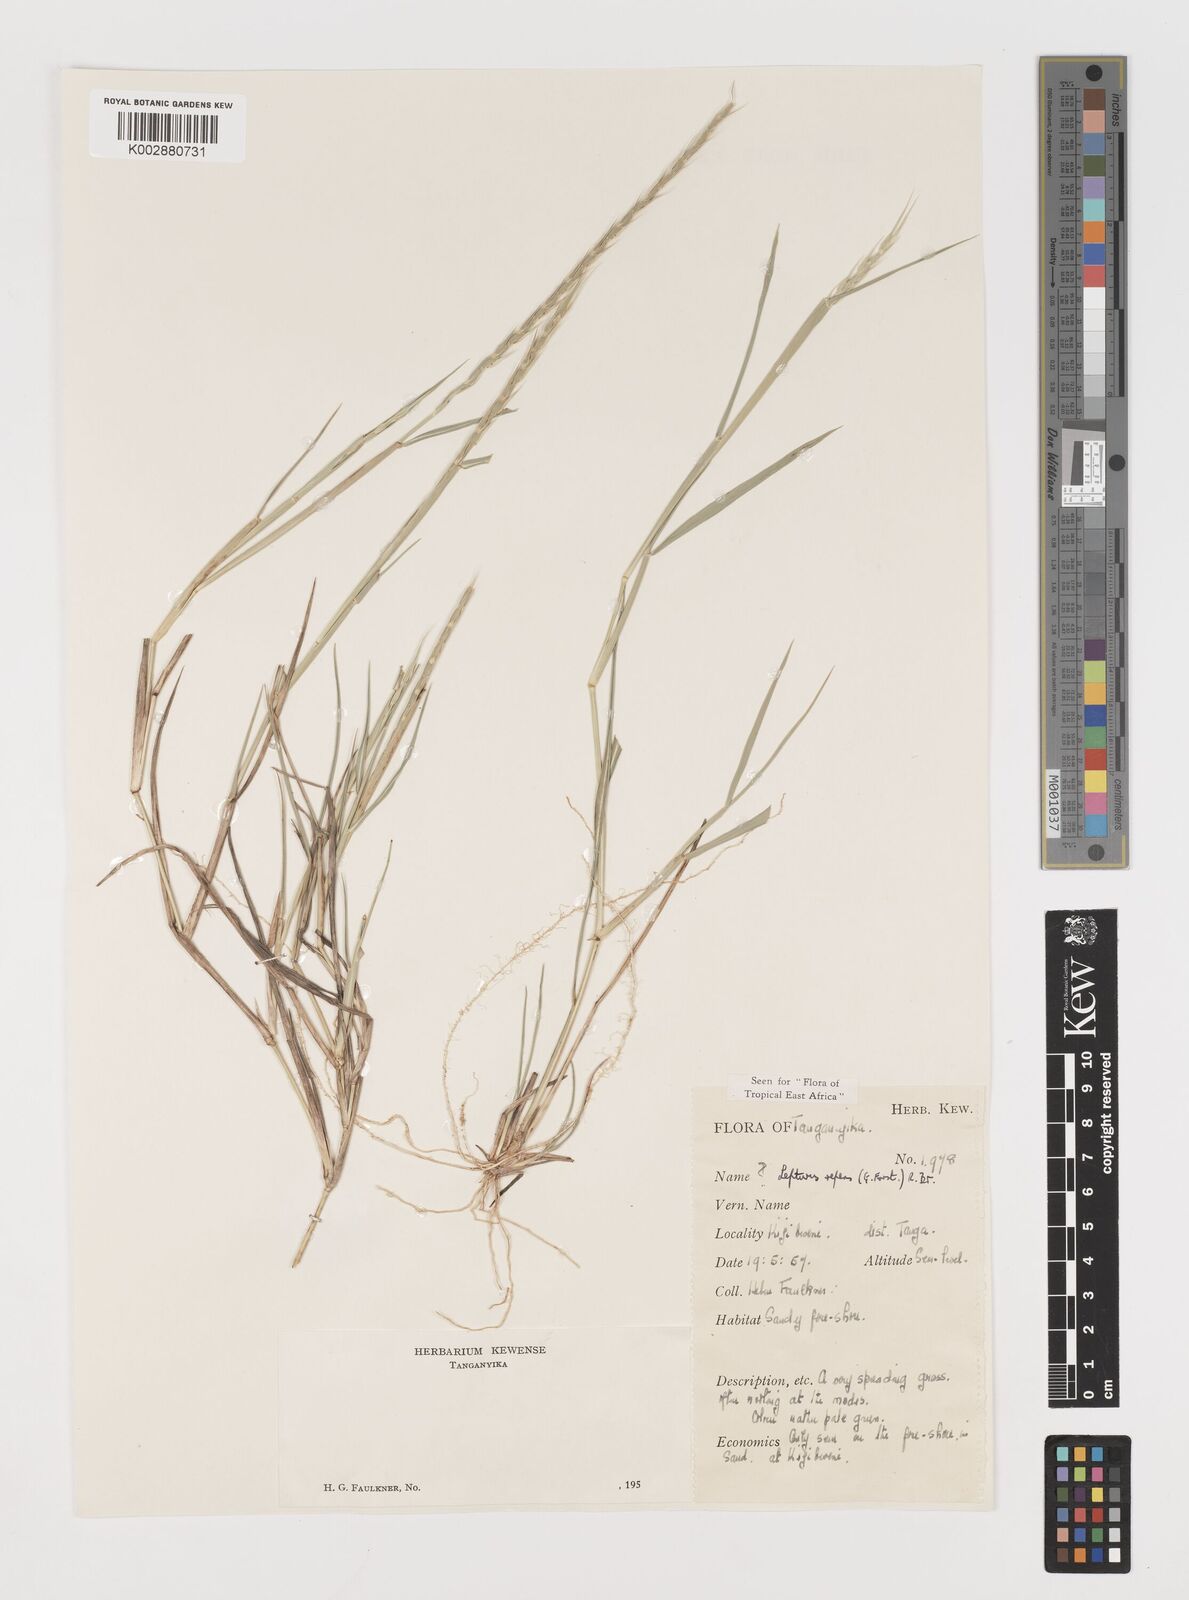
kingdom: Plantae
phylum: Tracheophyta
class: Liliopsida
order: Poales
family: Poaceae
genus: Lepturus
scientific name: Lepturus repens
